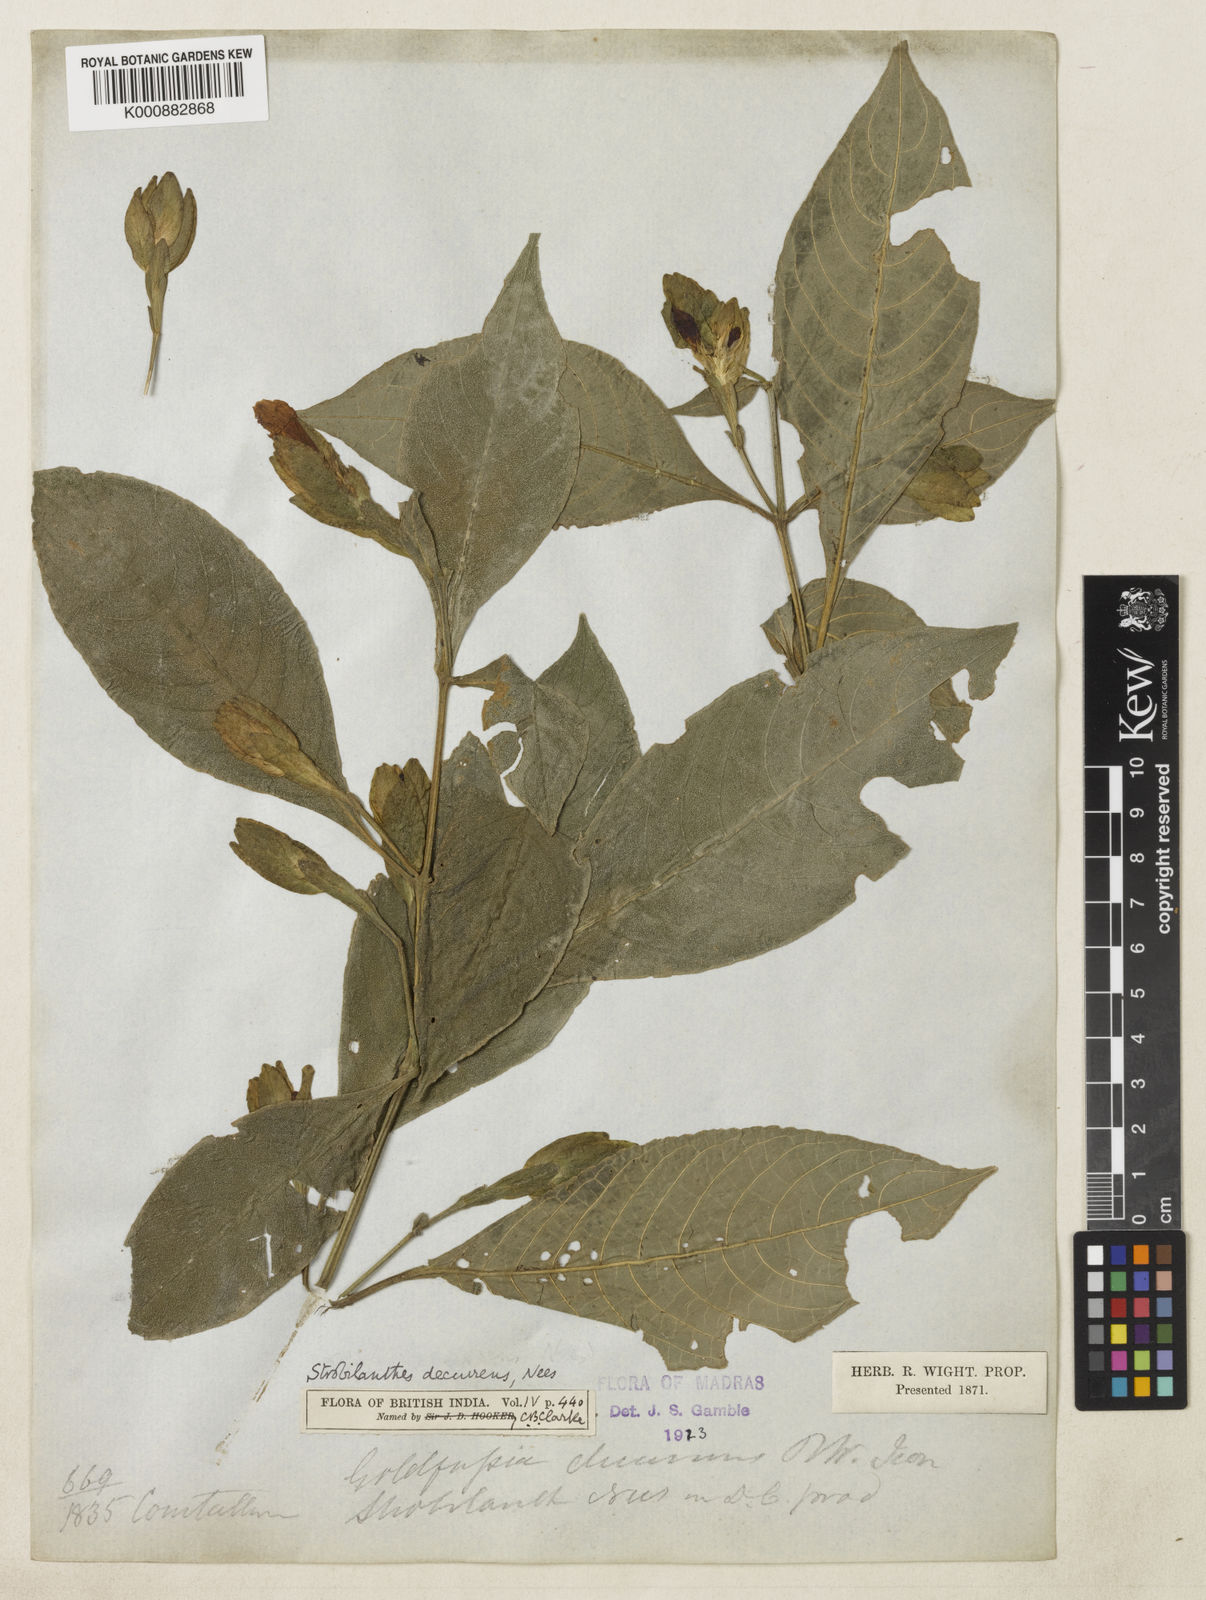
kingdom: Plantae
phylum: Tracheophyta
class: Magnoliopsida
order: Lamiales
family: Acanthaceae
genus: Strobilanthes
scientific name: Strobilanthes decurrens
